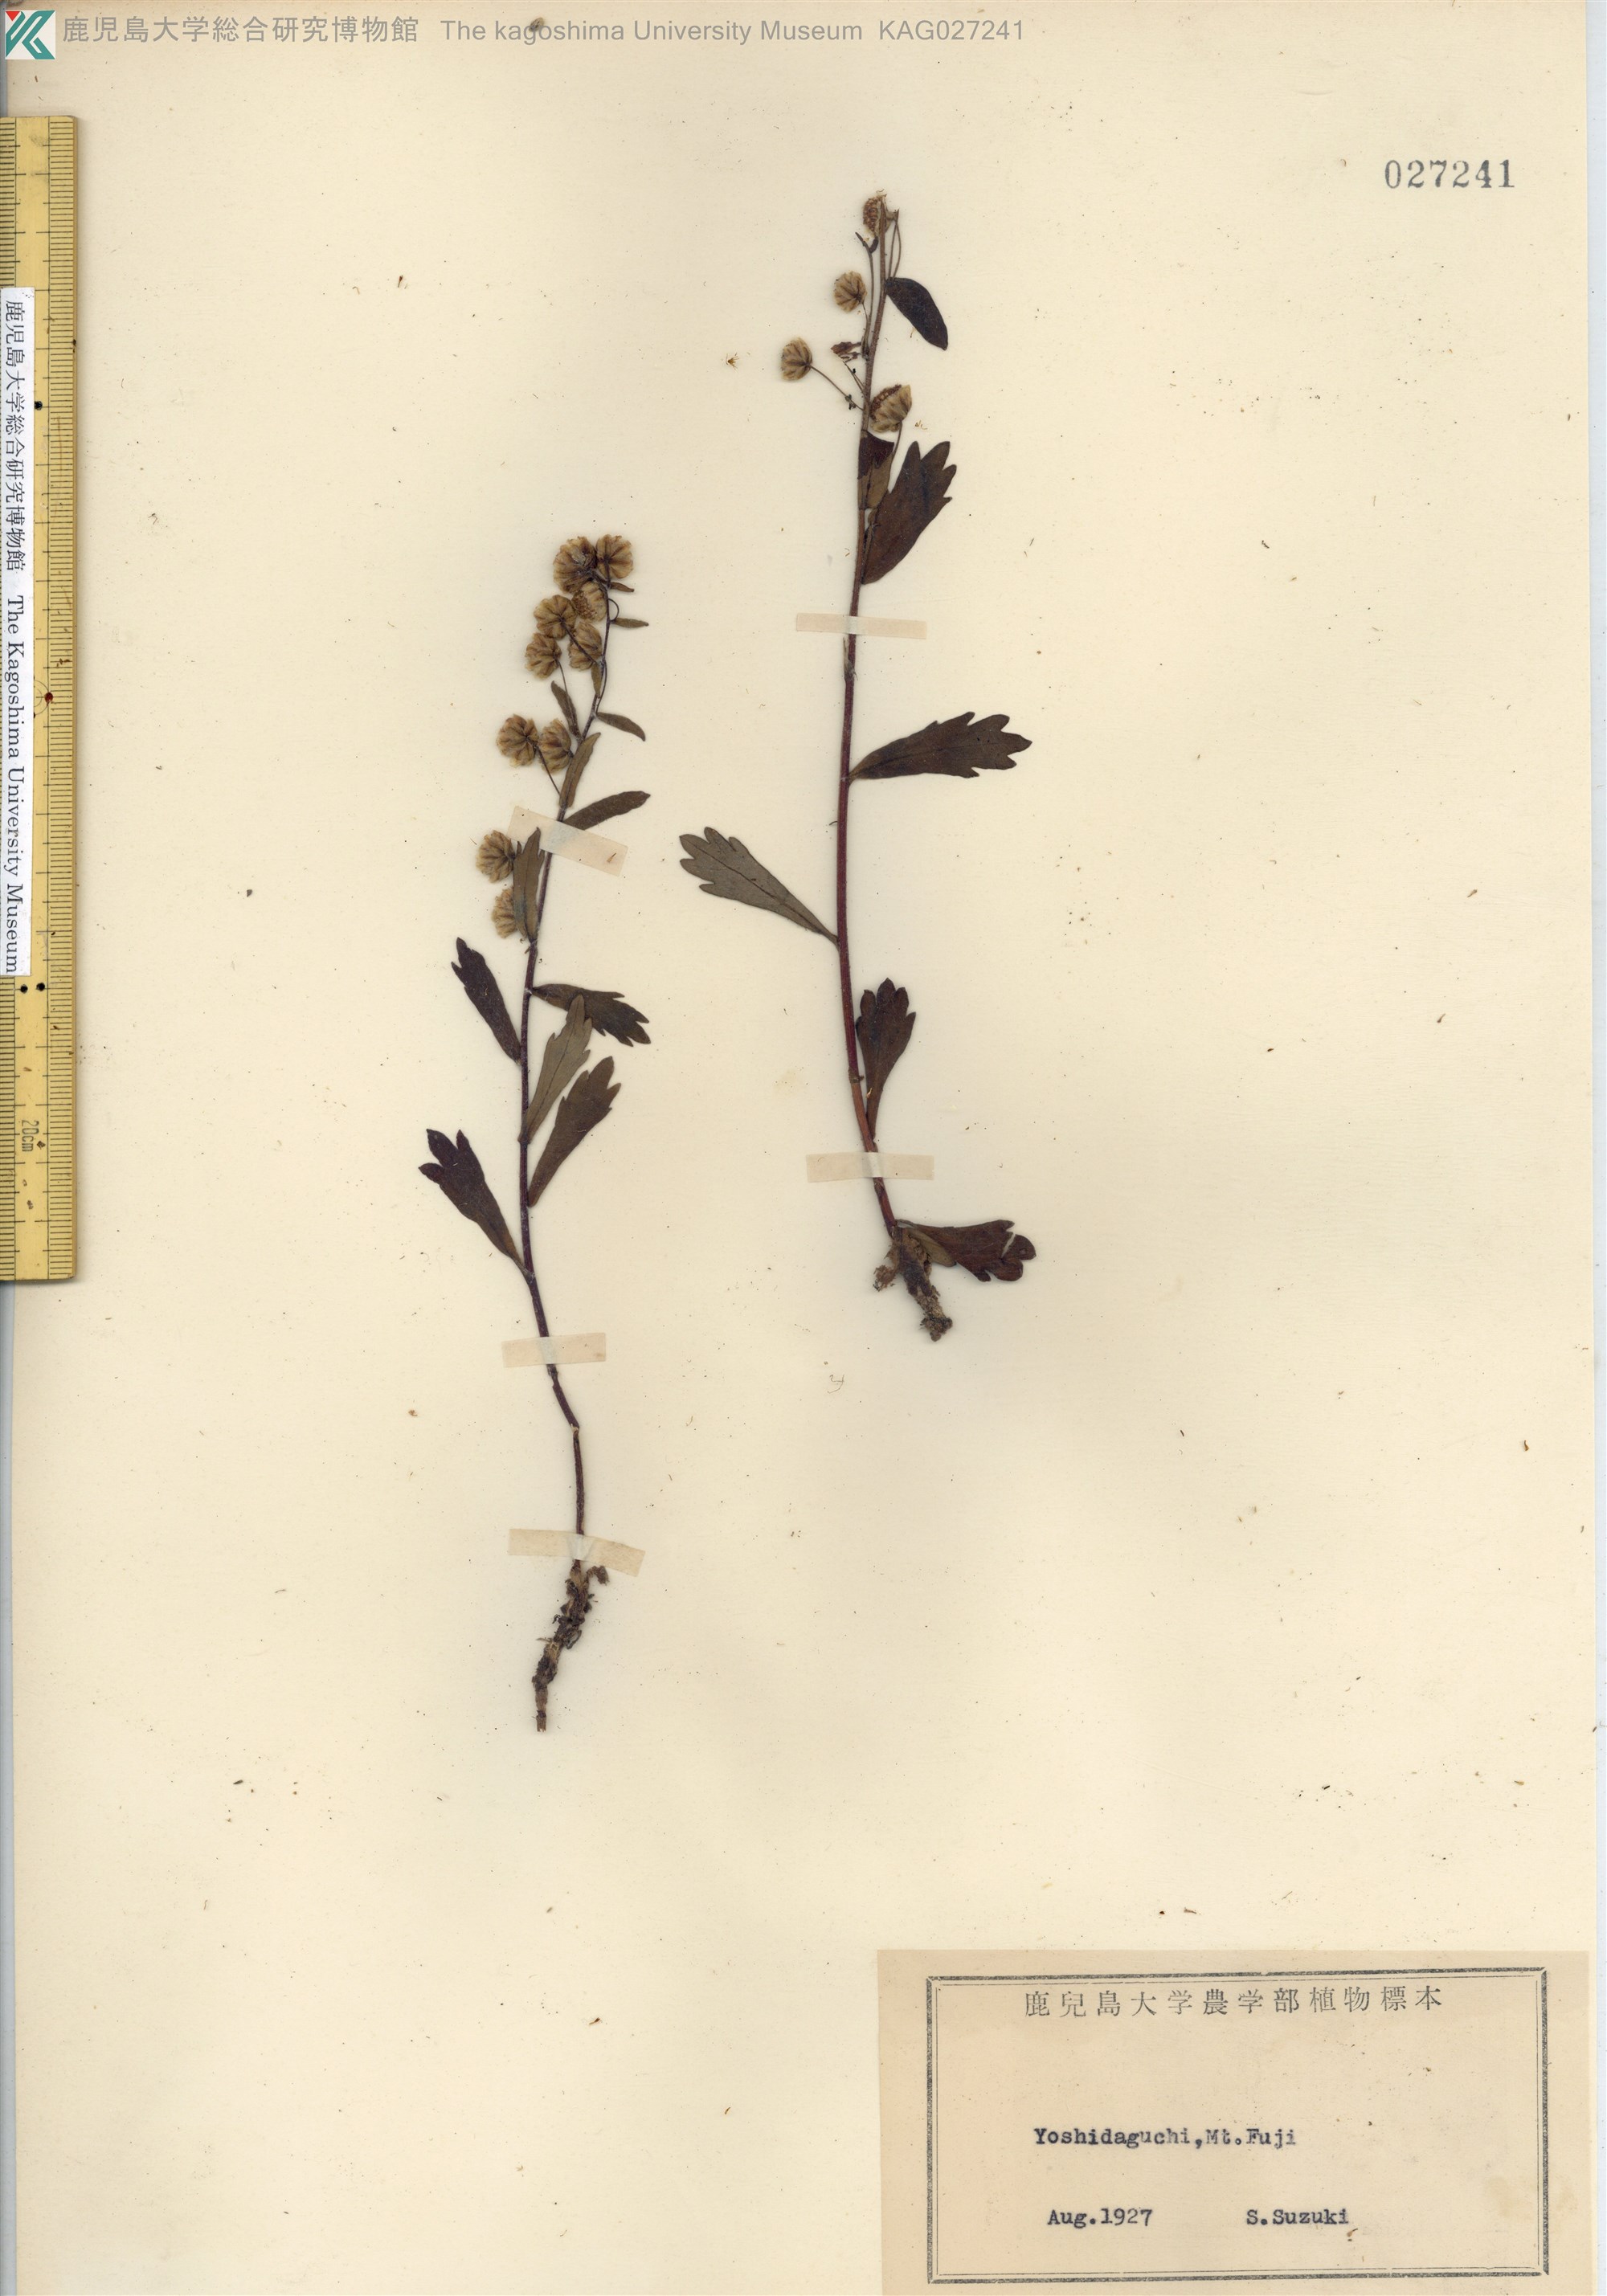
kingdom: Plantae
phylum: Tracheophyta
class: Magnoliopsida
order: Asterales
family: Asteraceae
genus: Artemisia
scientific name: Artemisia pedunculosa
